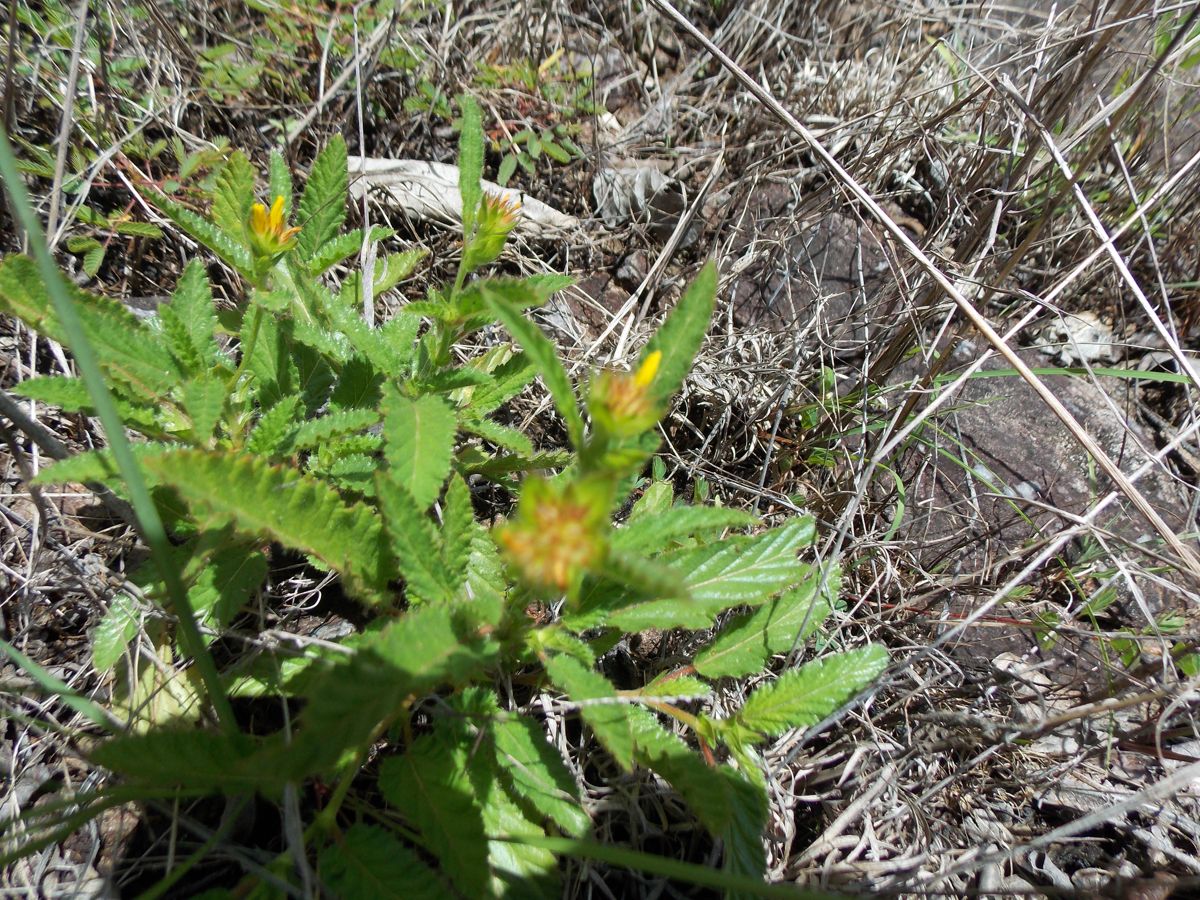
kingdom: Plantae
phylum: Tracheophyta
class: Magnoliopsida
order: Malvales
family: Malvaceae
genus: Waltheria
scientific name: Waltheria operculata
